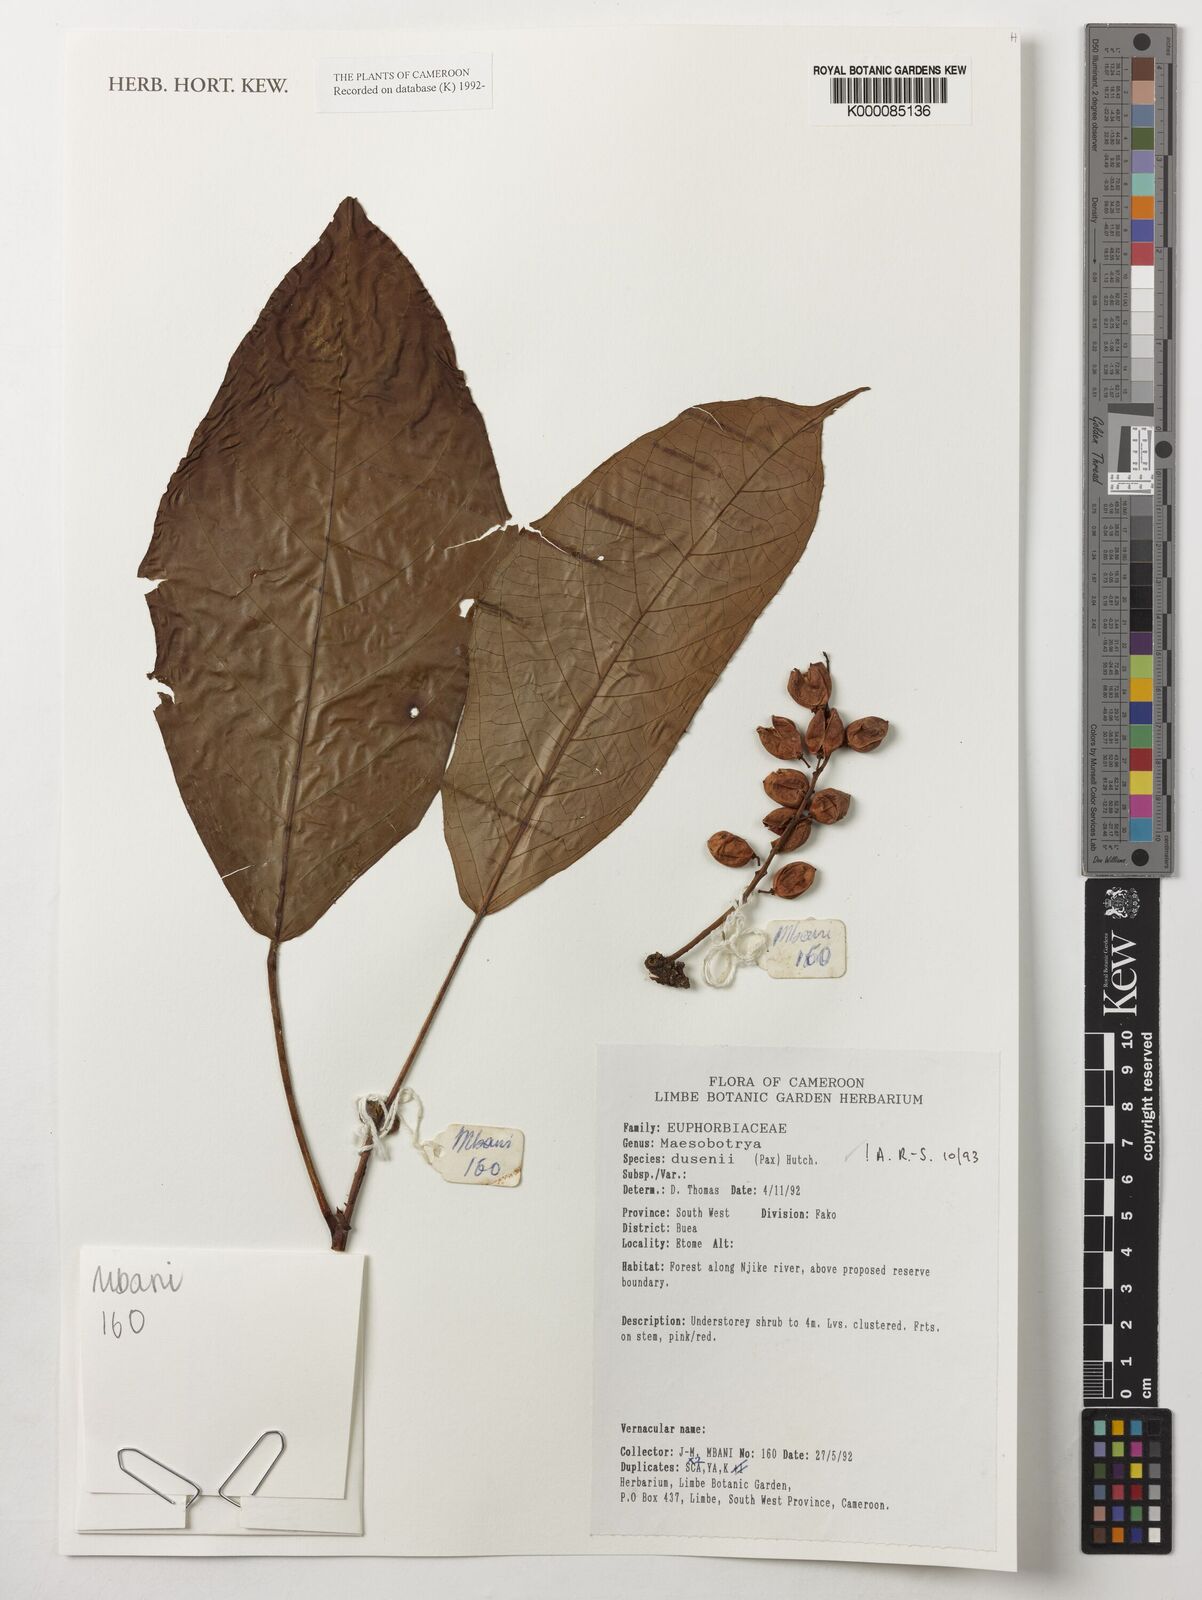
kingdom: Plantae
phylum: Tracheophyta
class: Magnoliopsida
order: Malpighiales
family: Phyllanthaceae
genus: Maesobotrya
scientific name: Maesobotrya
